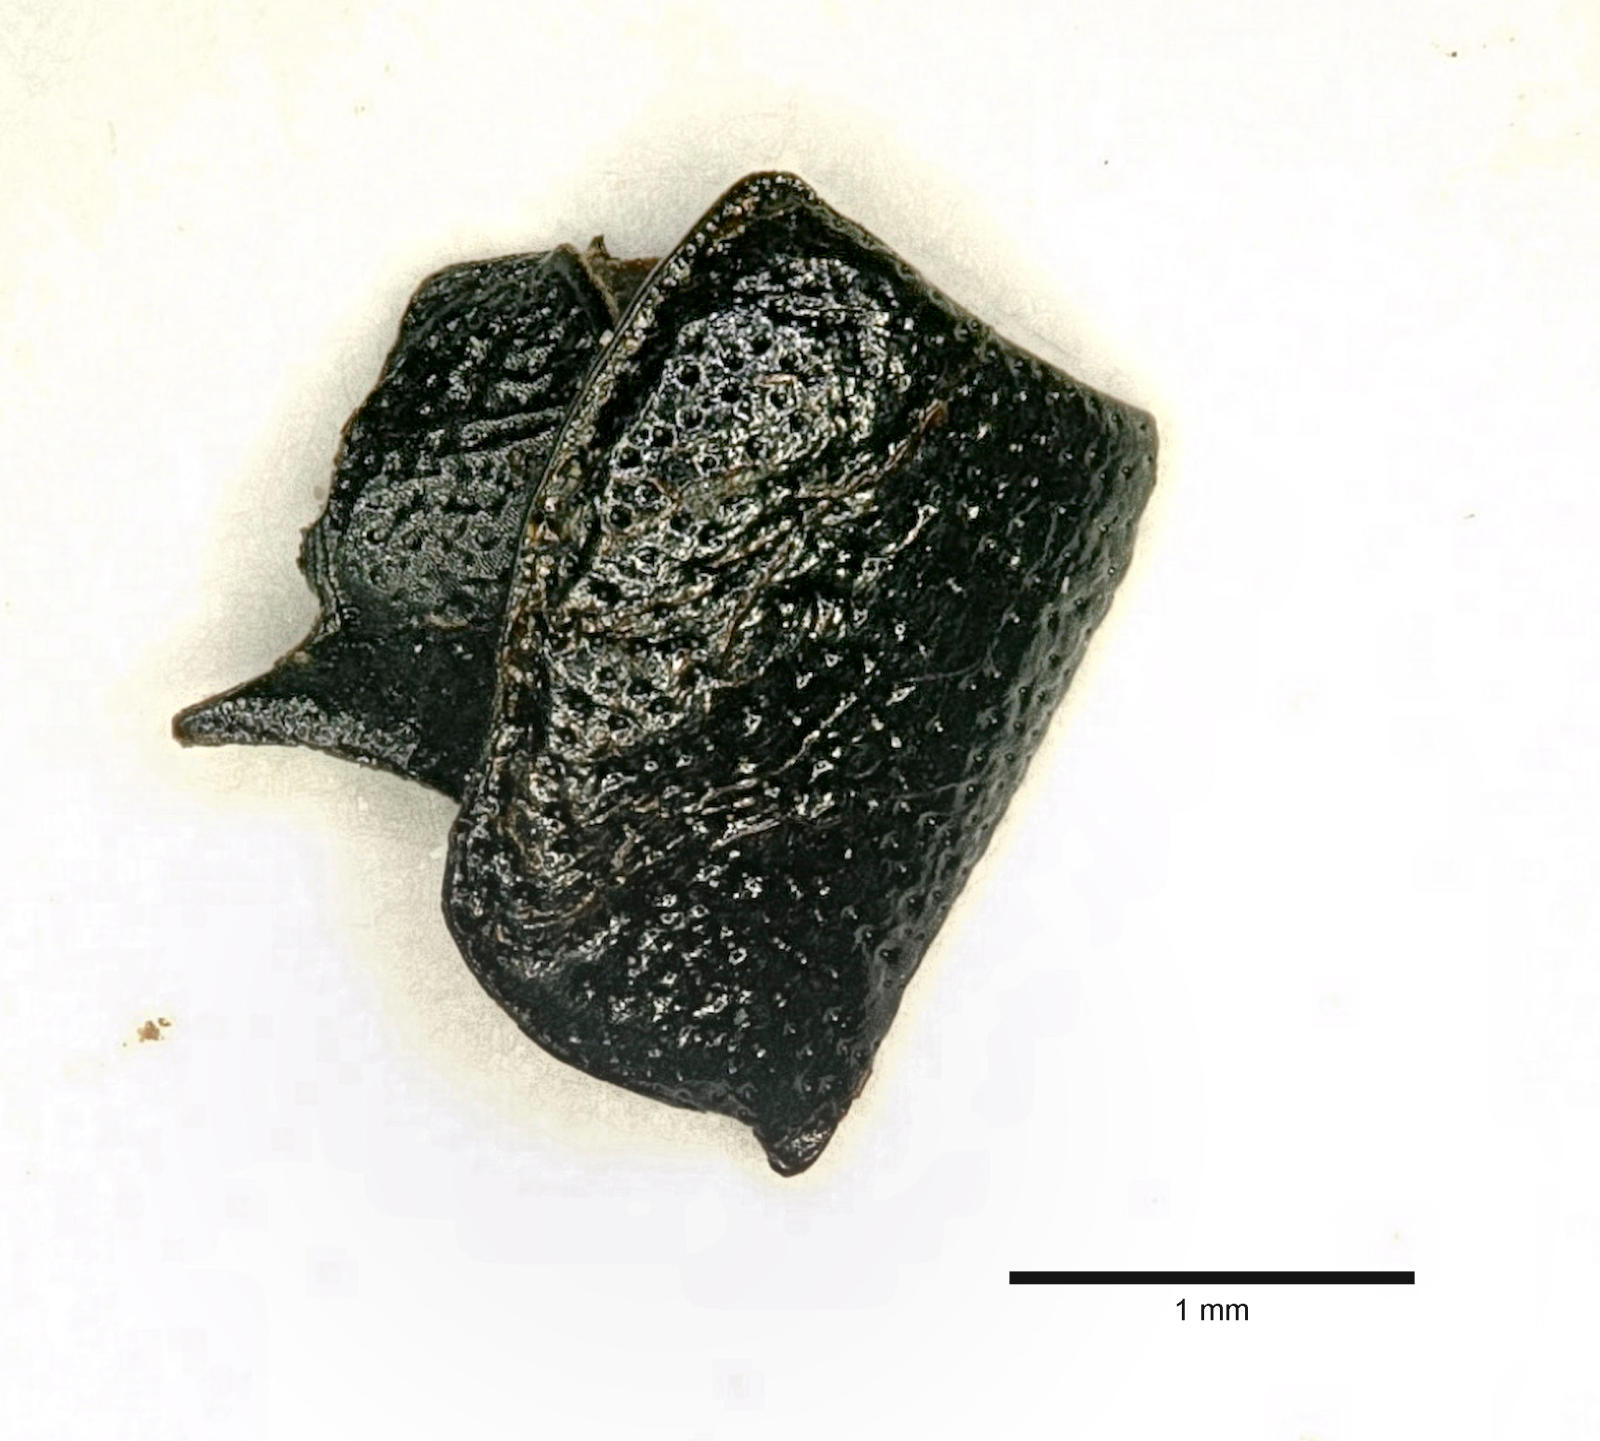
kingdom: Animalia
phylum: Arthropoda
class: Insecta
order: Coleoptera
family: Carabidae
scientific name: Carabidae
